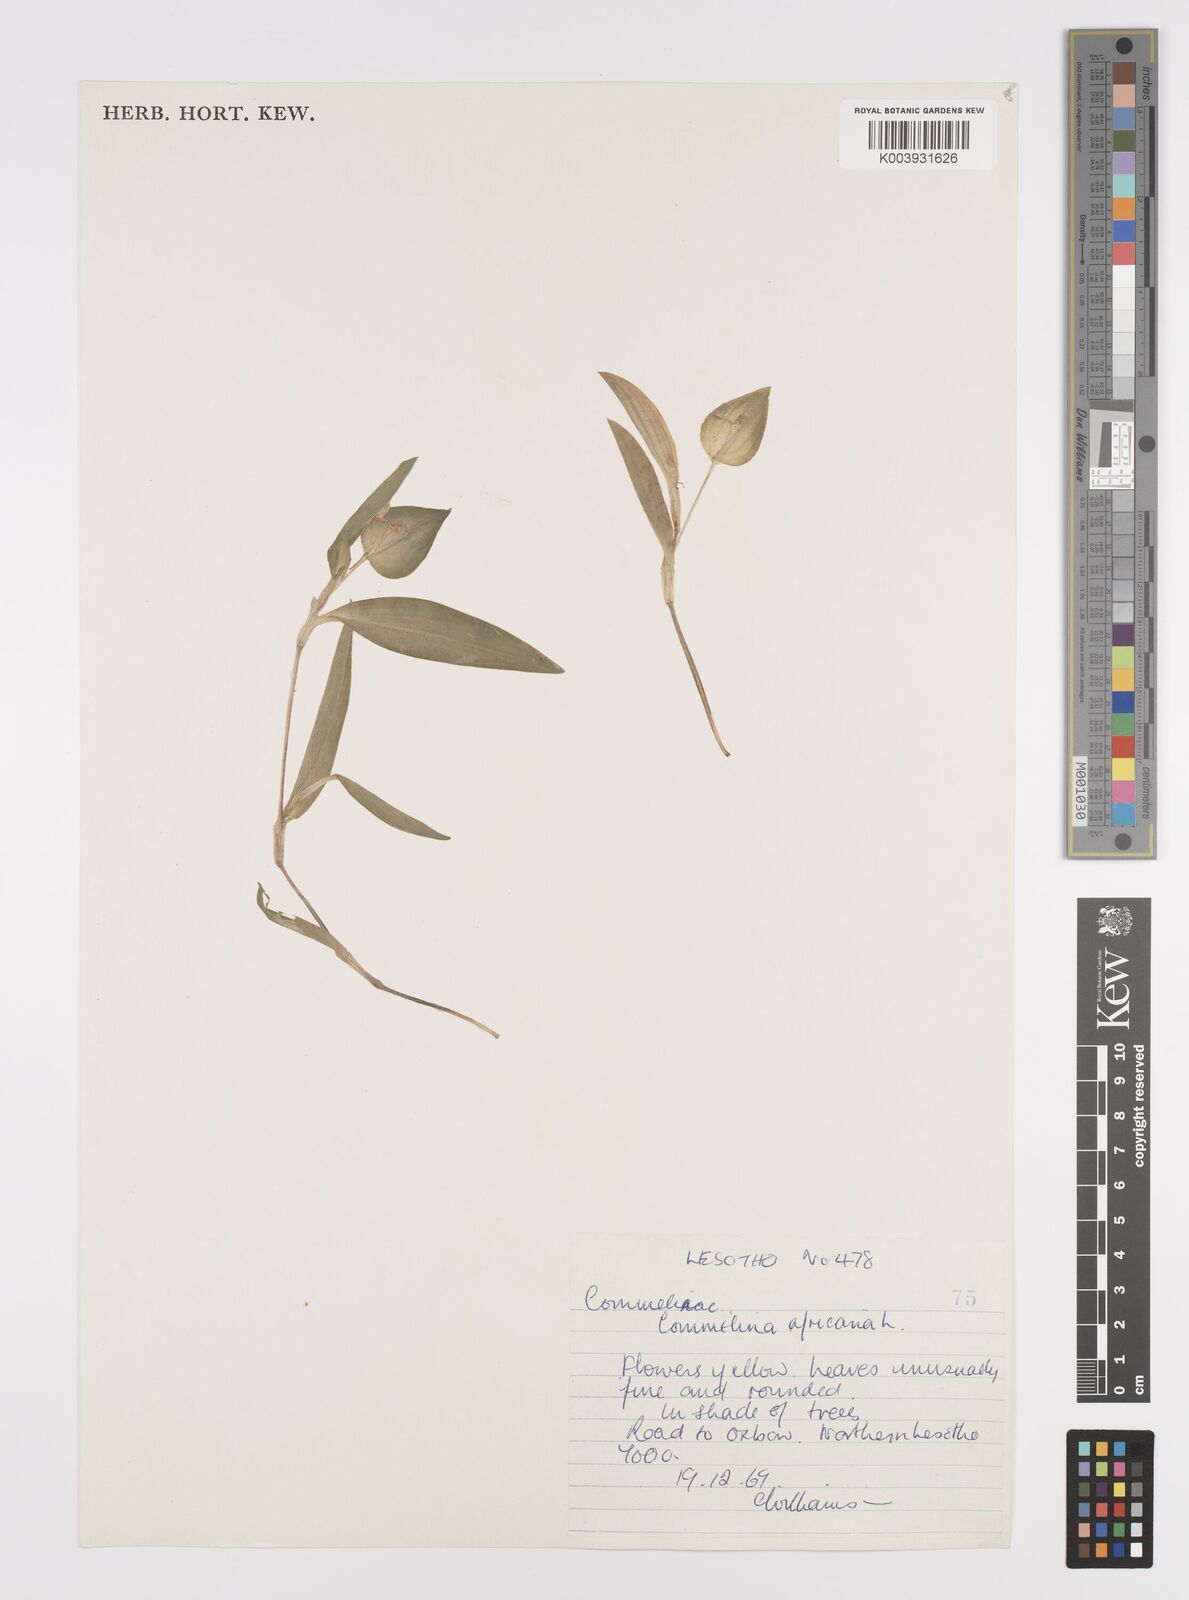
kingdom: Plantae
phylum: Tracheophyta
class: Liliopsida
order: Commelinales
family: Commelinaceae
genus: Commelina
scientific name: Commelina africana
